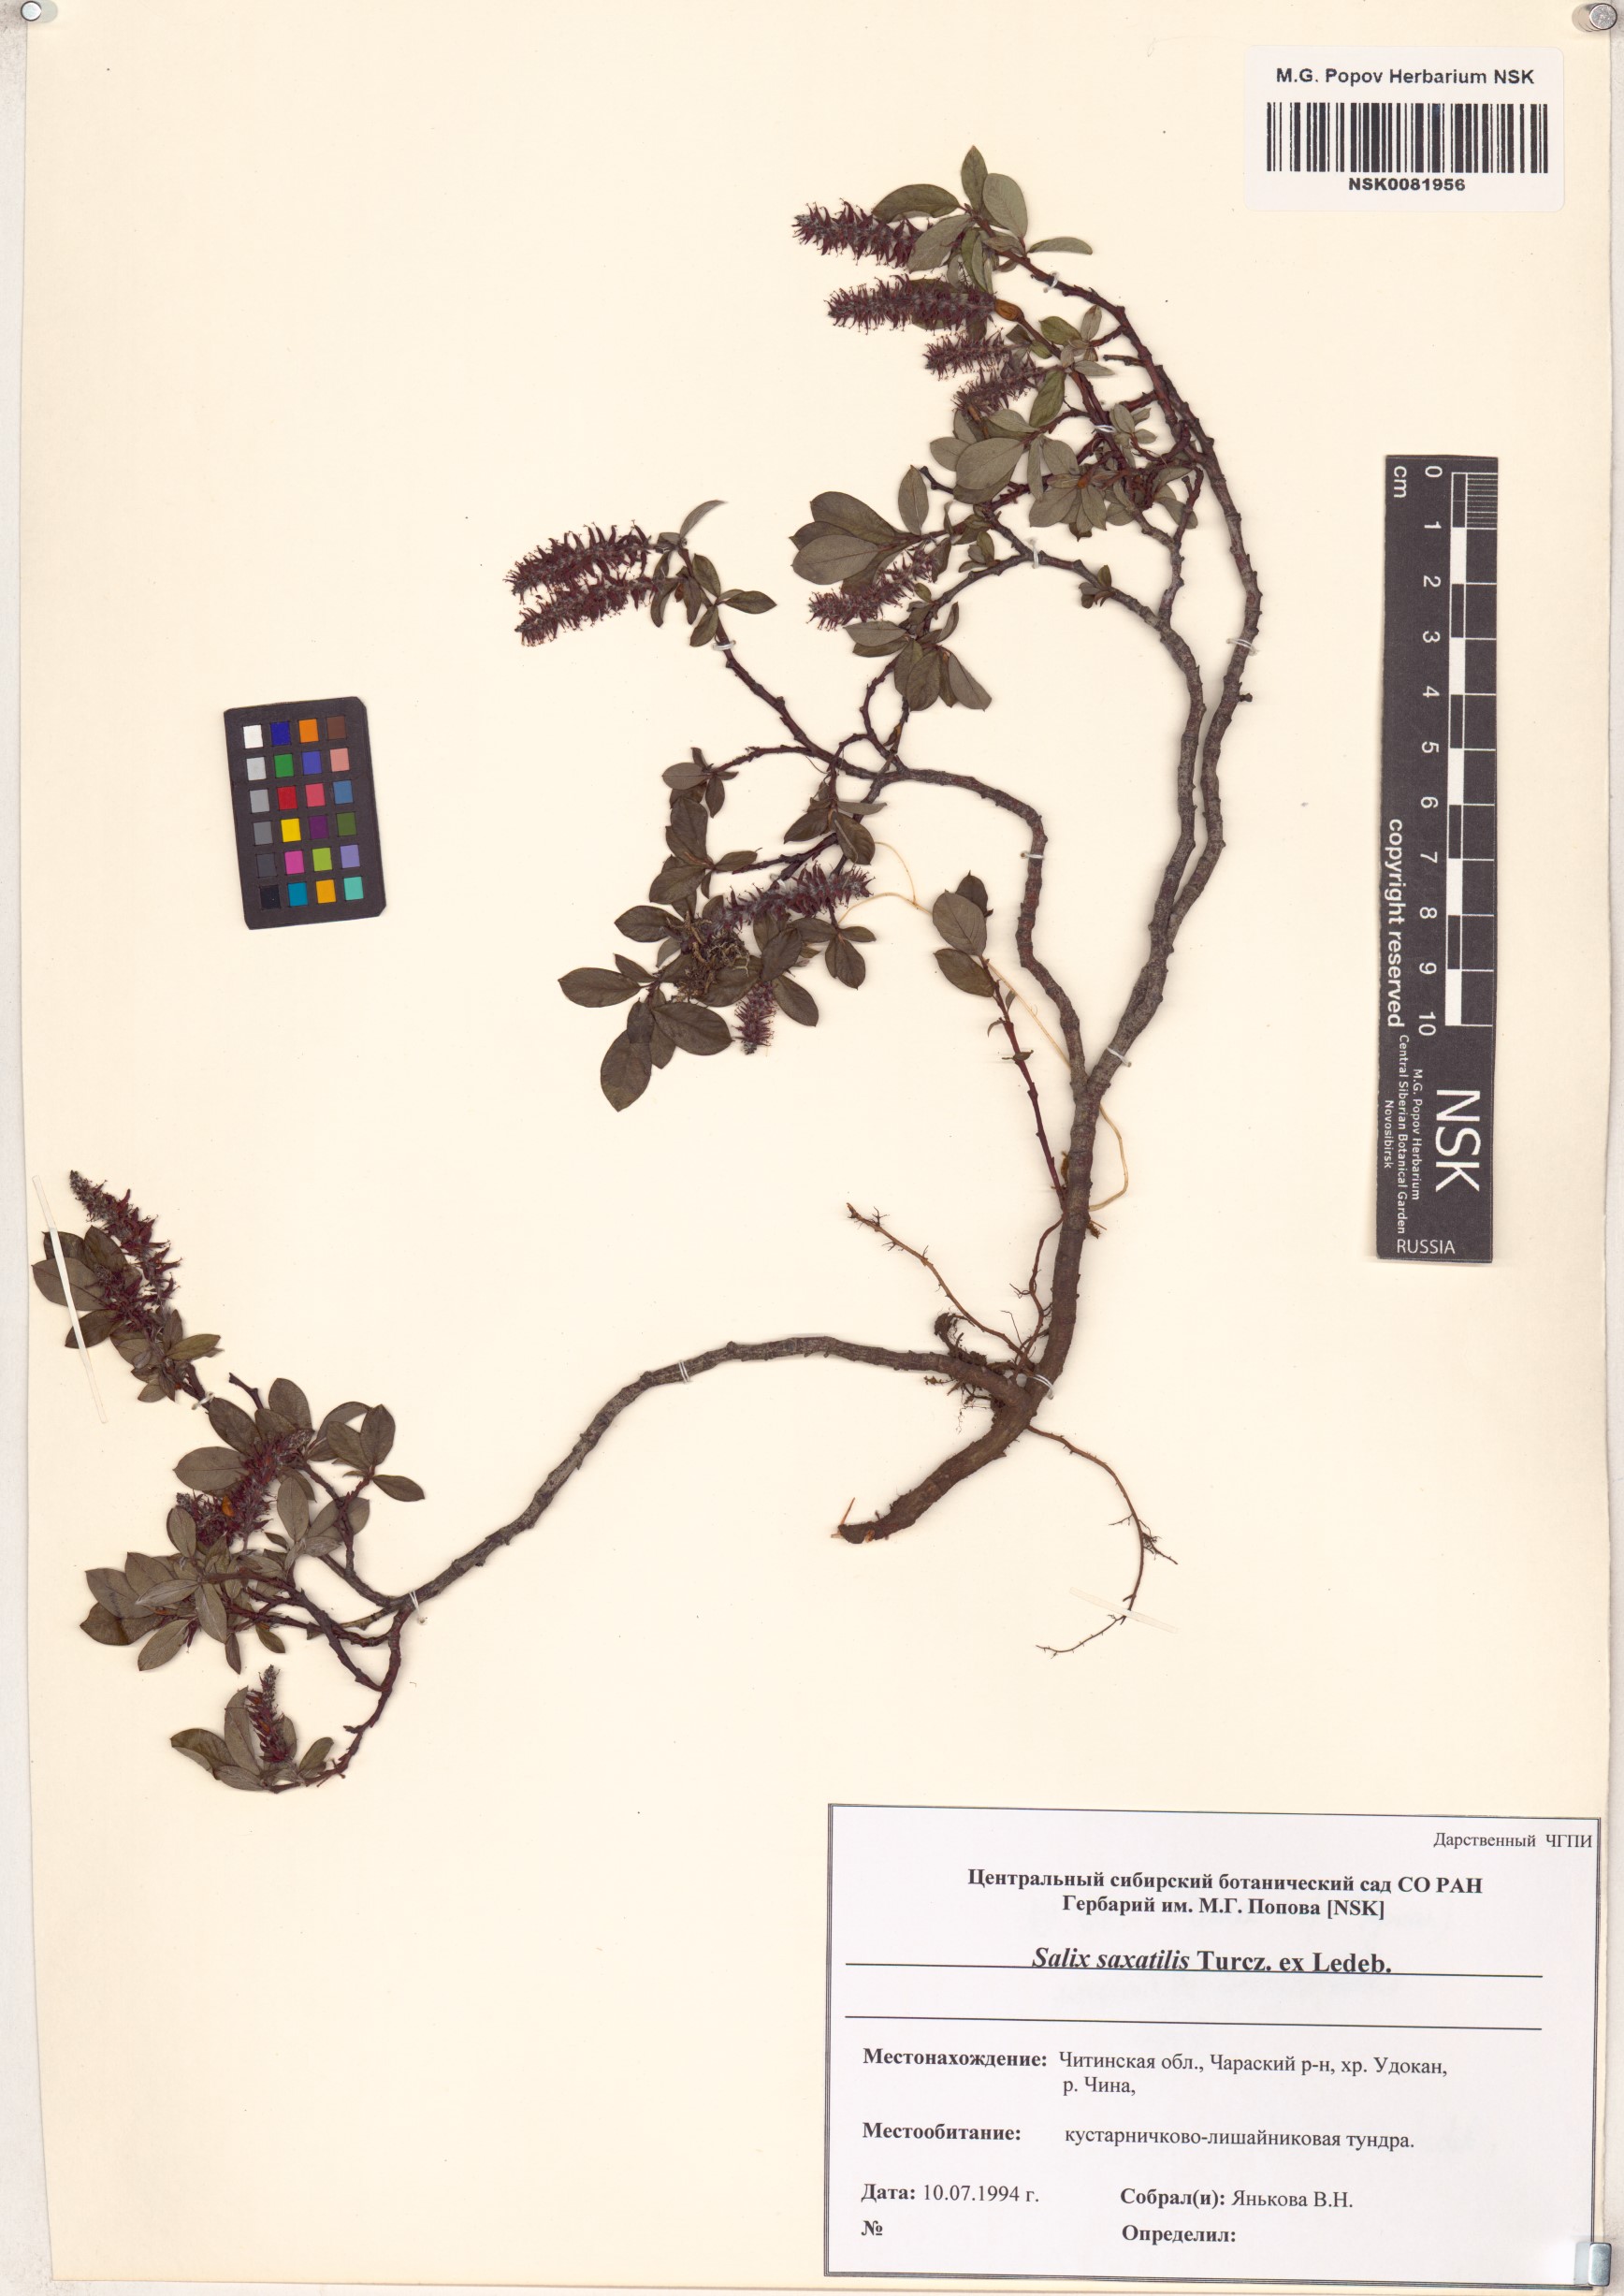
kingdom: Plantae
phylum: Tracheophyta
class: Magnoliopsida
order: Malpighiales
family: Salicaceae
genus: Salix
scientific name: Salix saxatilis
